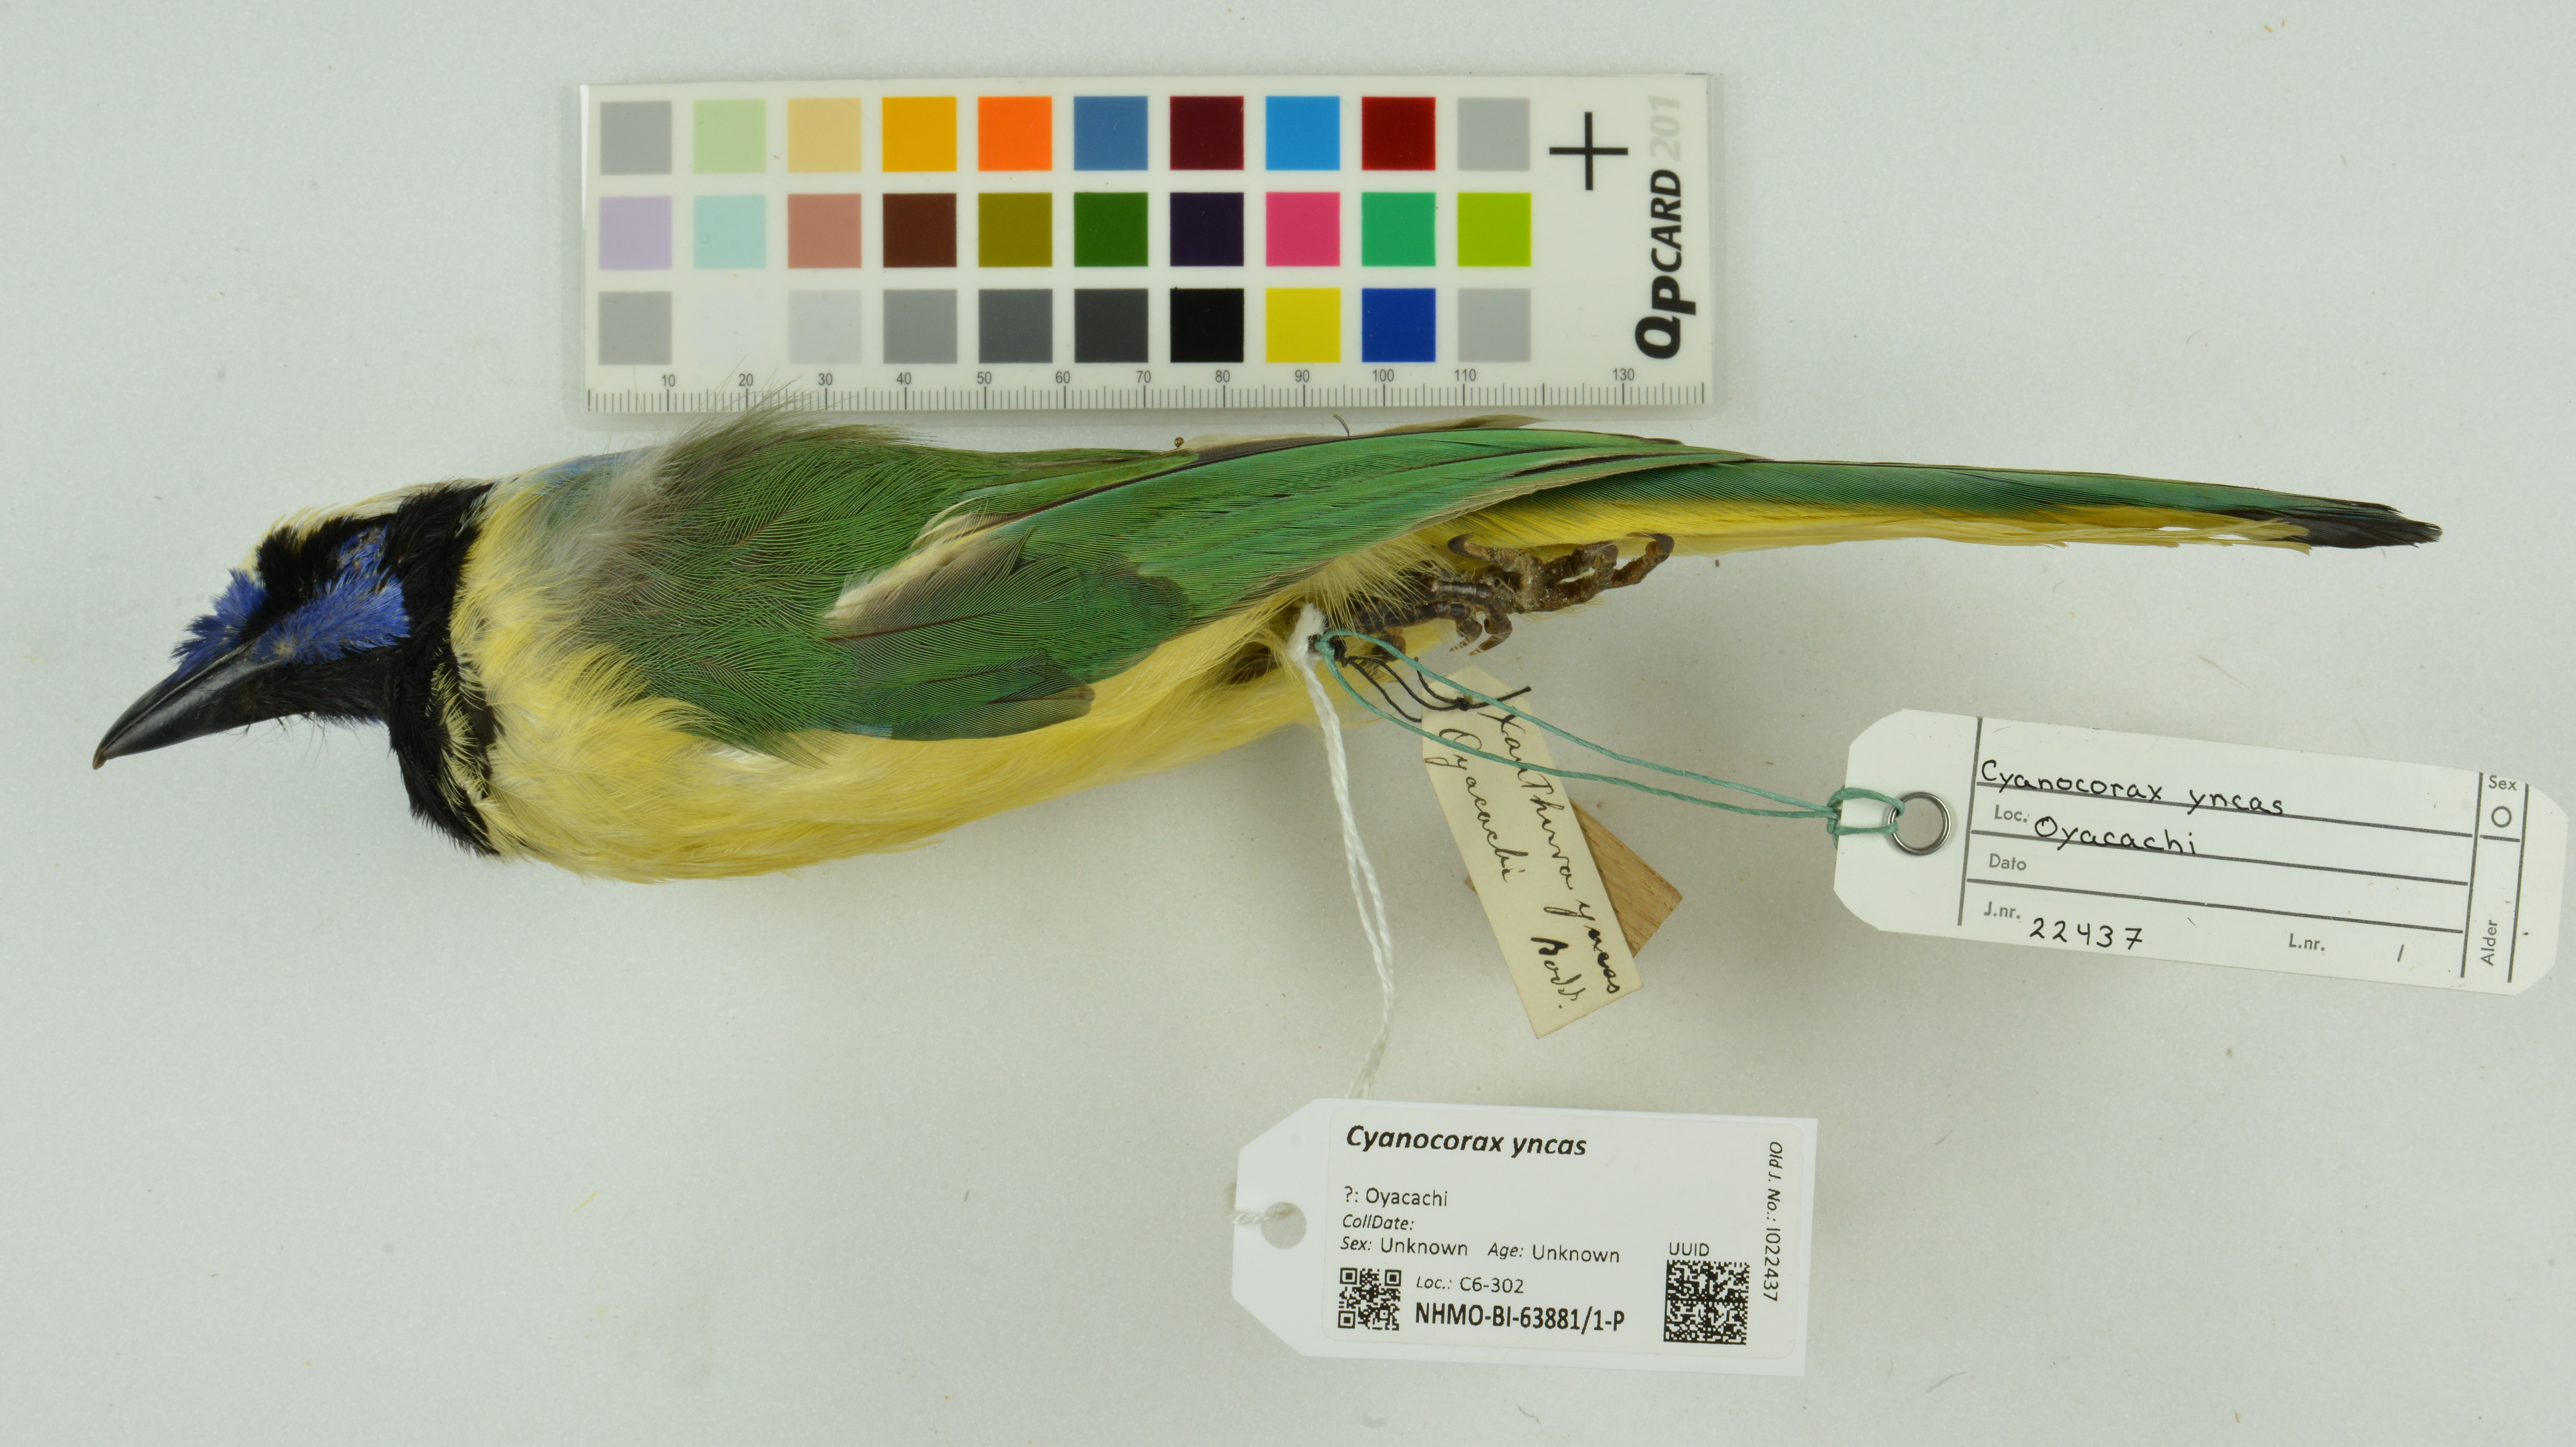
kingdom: Animalia
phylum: Chordata
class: Aves
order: Passeriformes
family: Corvidae
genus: Cyanocorax
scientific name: Cyanocorax yncas
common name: Green jay
